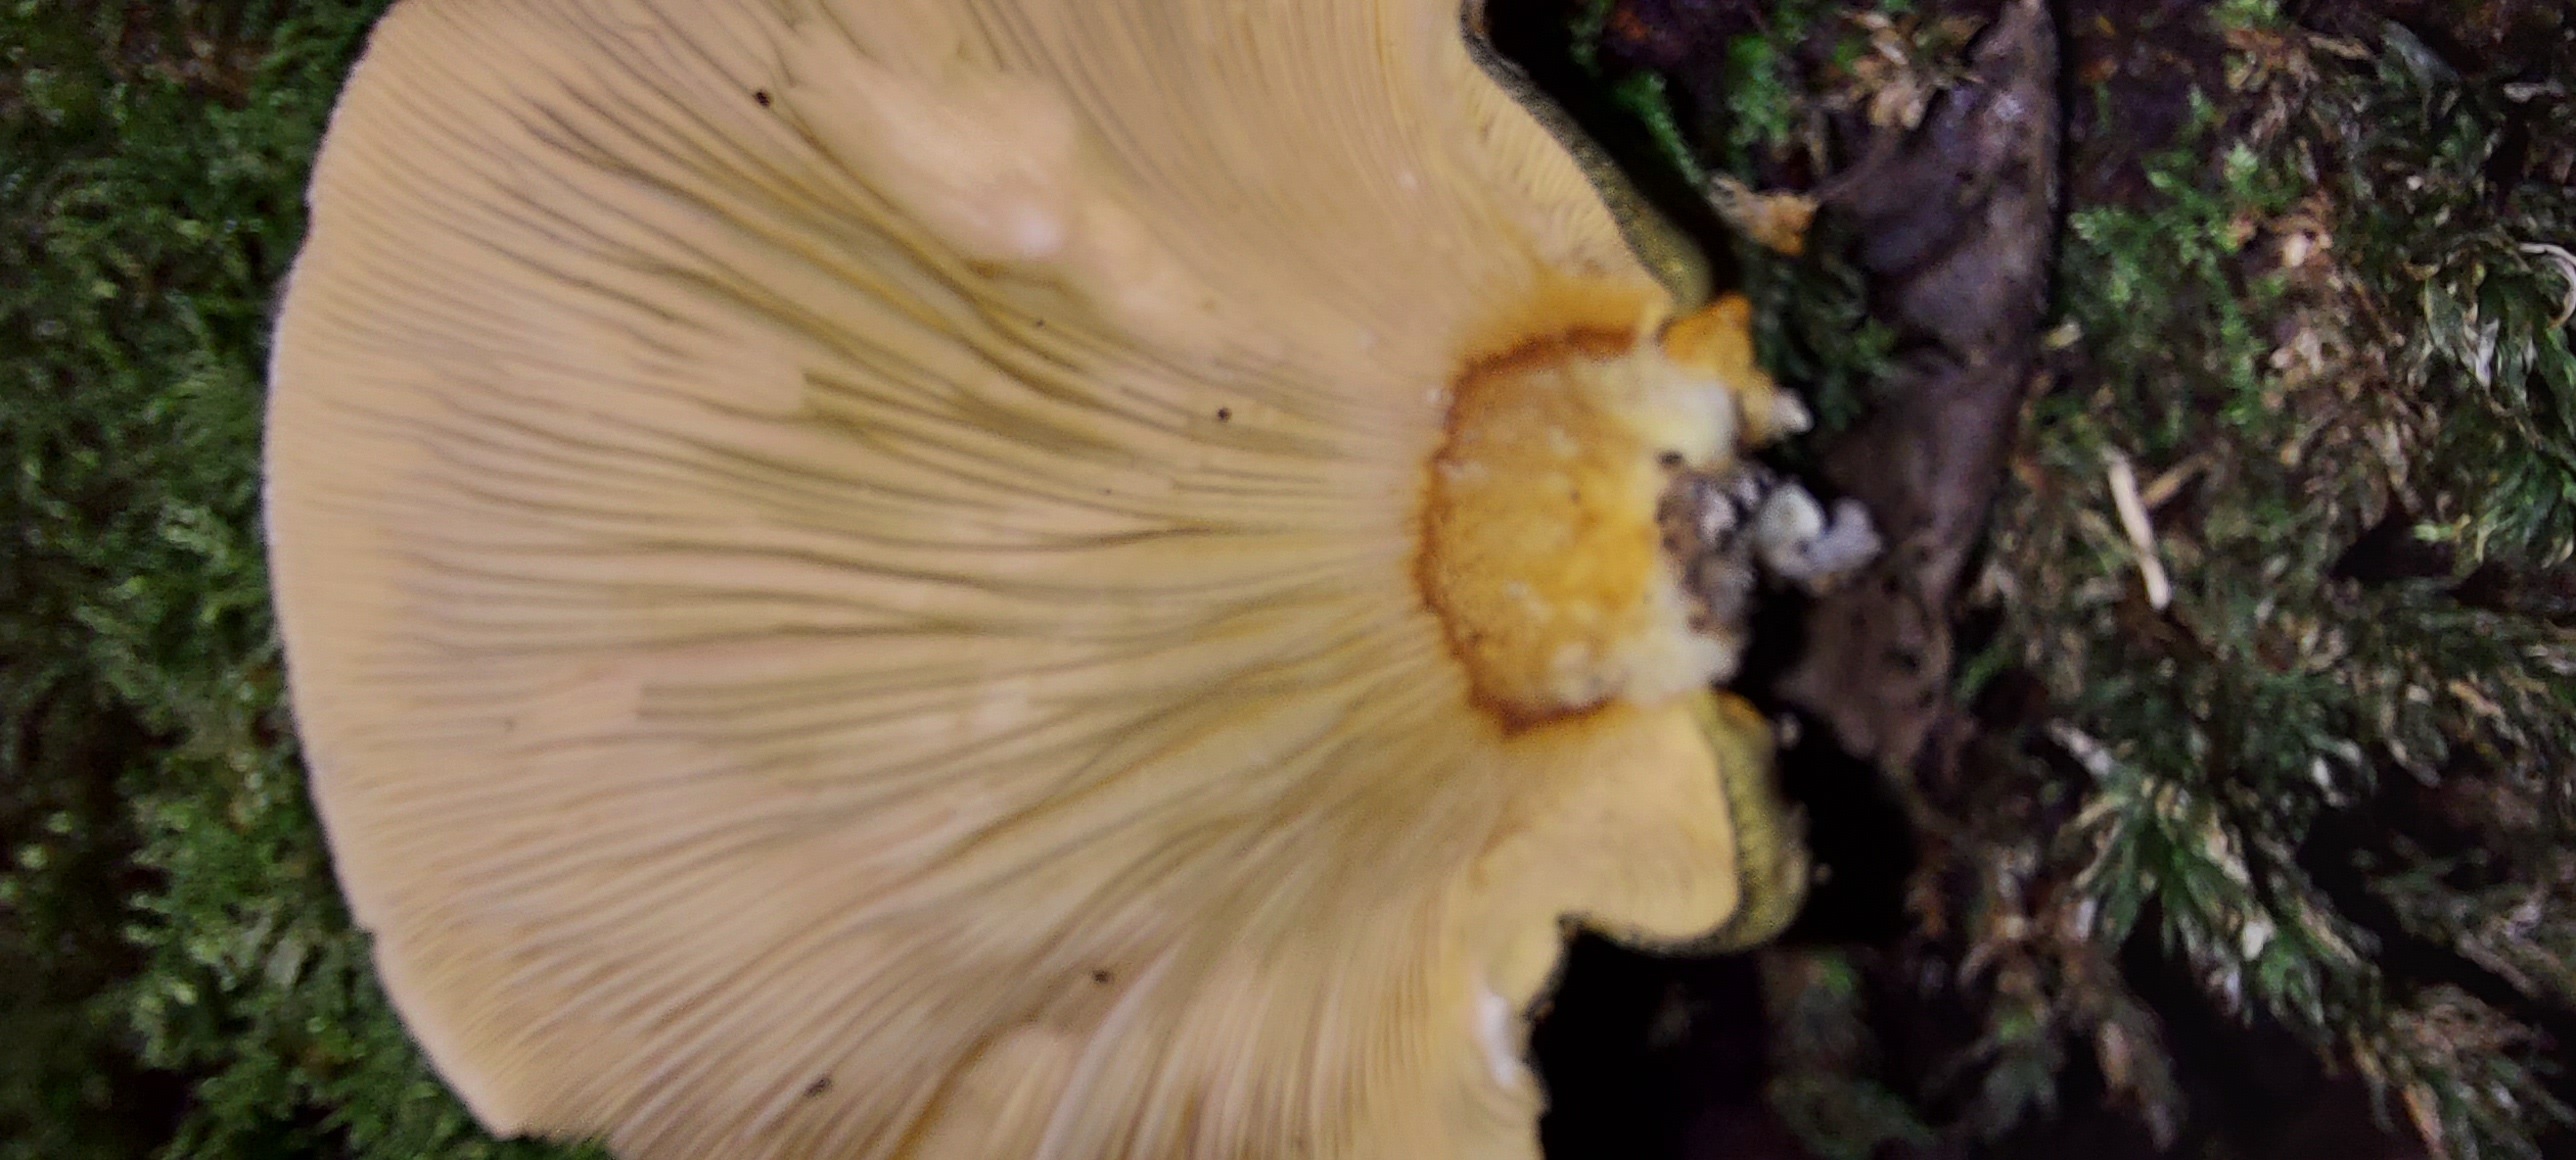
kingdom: Fungi
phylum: Basidiomycota
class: Agaricomycetes
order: Agaricales
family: Sarcomyxaceae
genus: Sarcomyxa
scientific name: Sarcomyxa serotina
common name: gummihat
